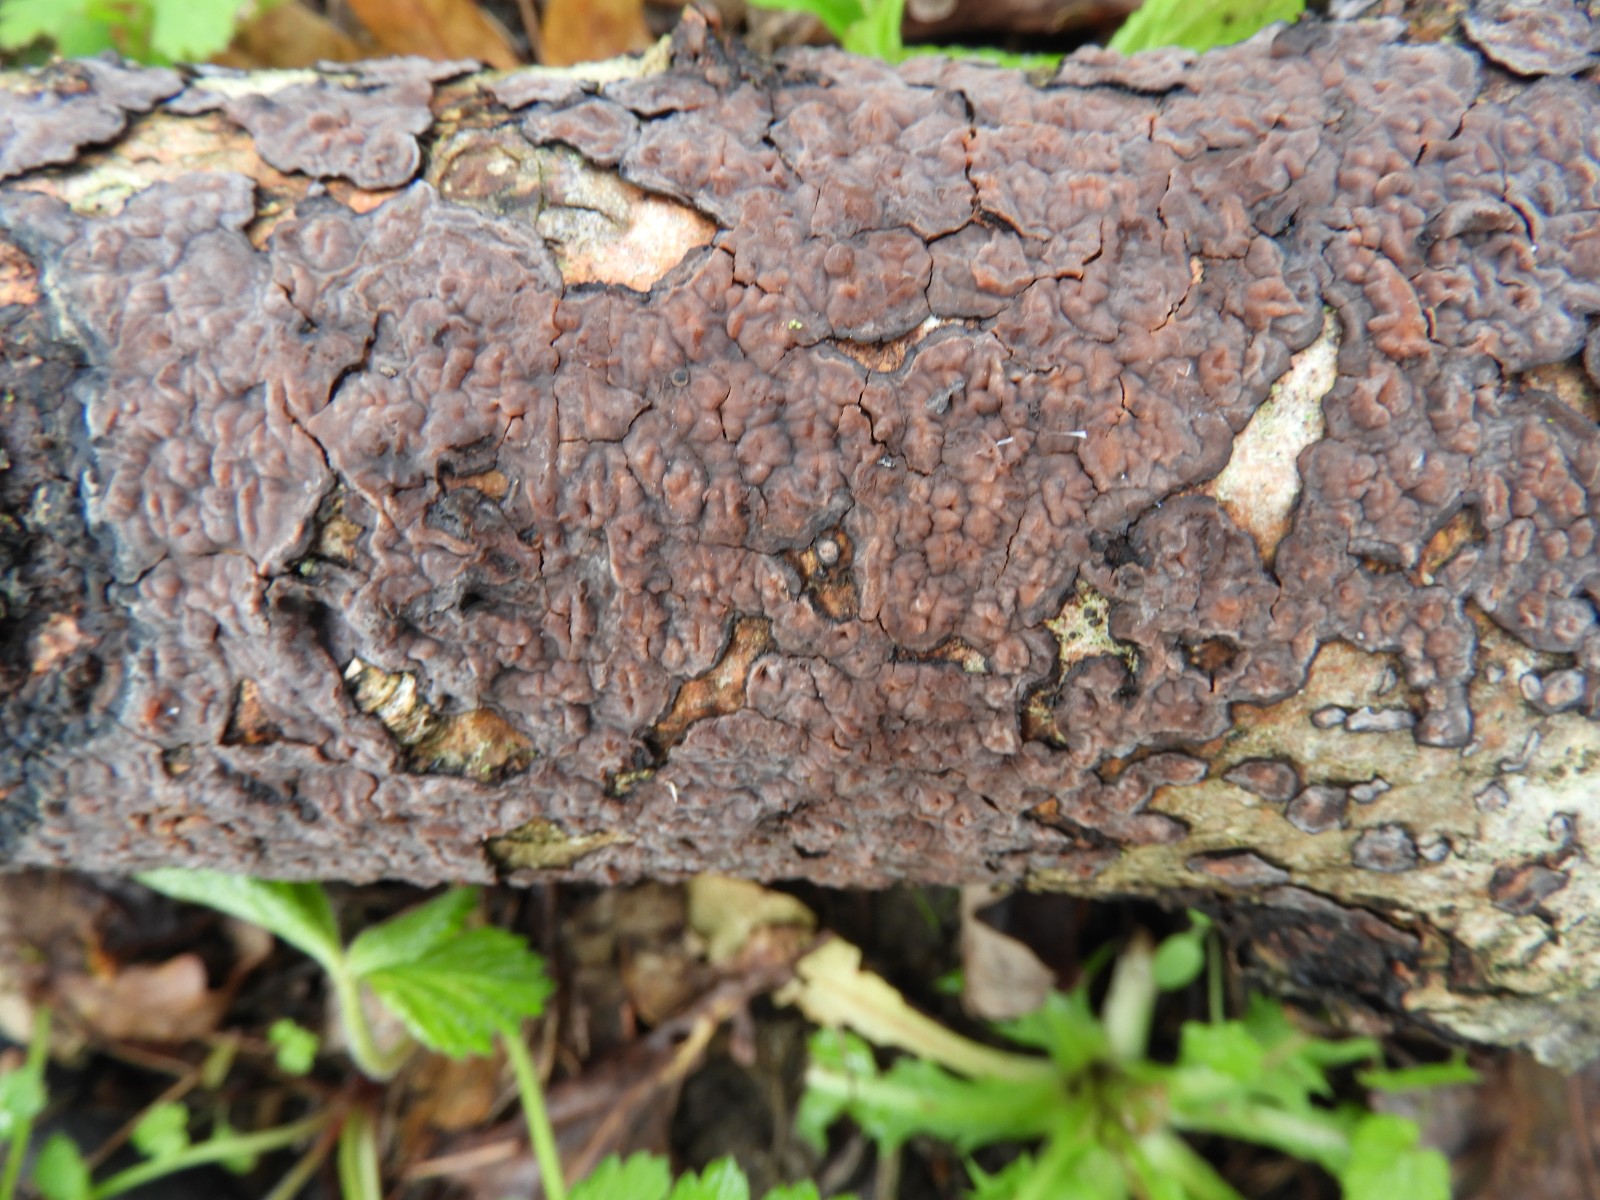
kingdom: Fungi
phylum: Basidiomycota
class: Agaricomycetes
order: Russulales
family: Peniophoraceae
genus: Peniophora
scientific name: Peniophora quercina
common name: ege-voksskind
